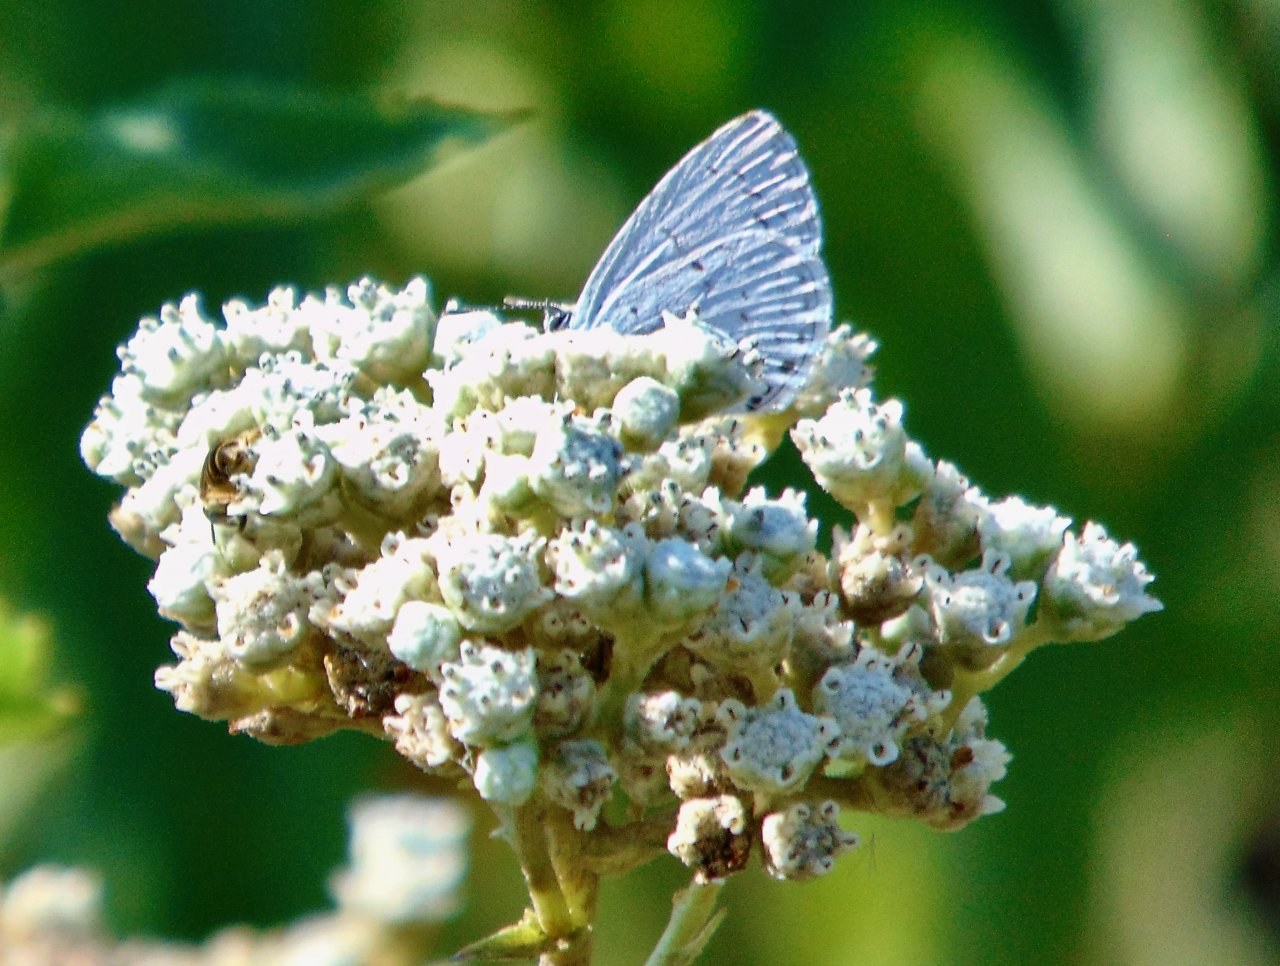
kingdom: Animalia
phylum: Arthropoda
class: Insecta
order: Lepidoptera
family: Lycaenidae
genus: Cyaniris
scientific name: Cyaniris neglecta
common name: Summer Azure
